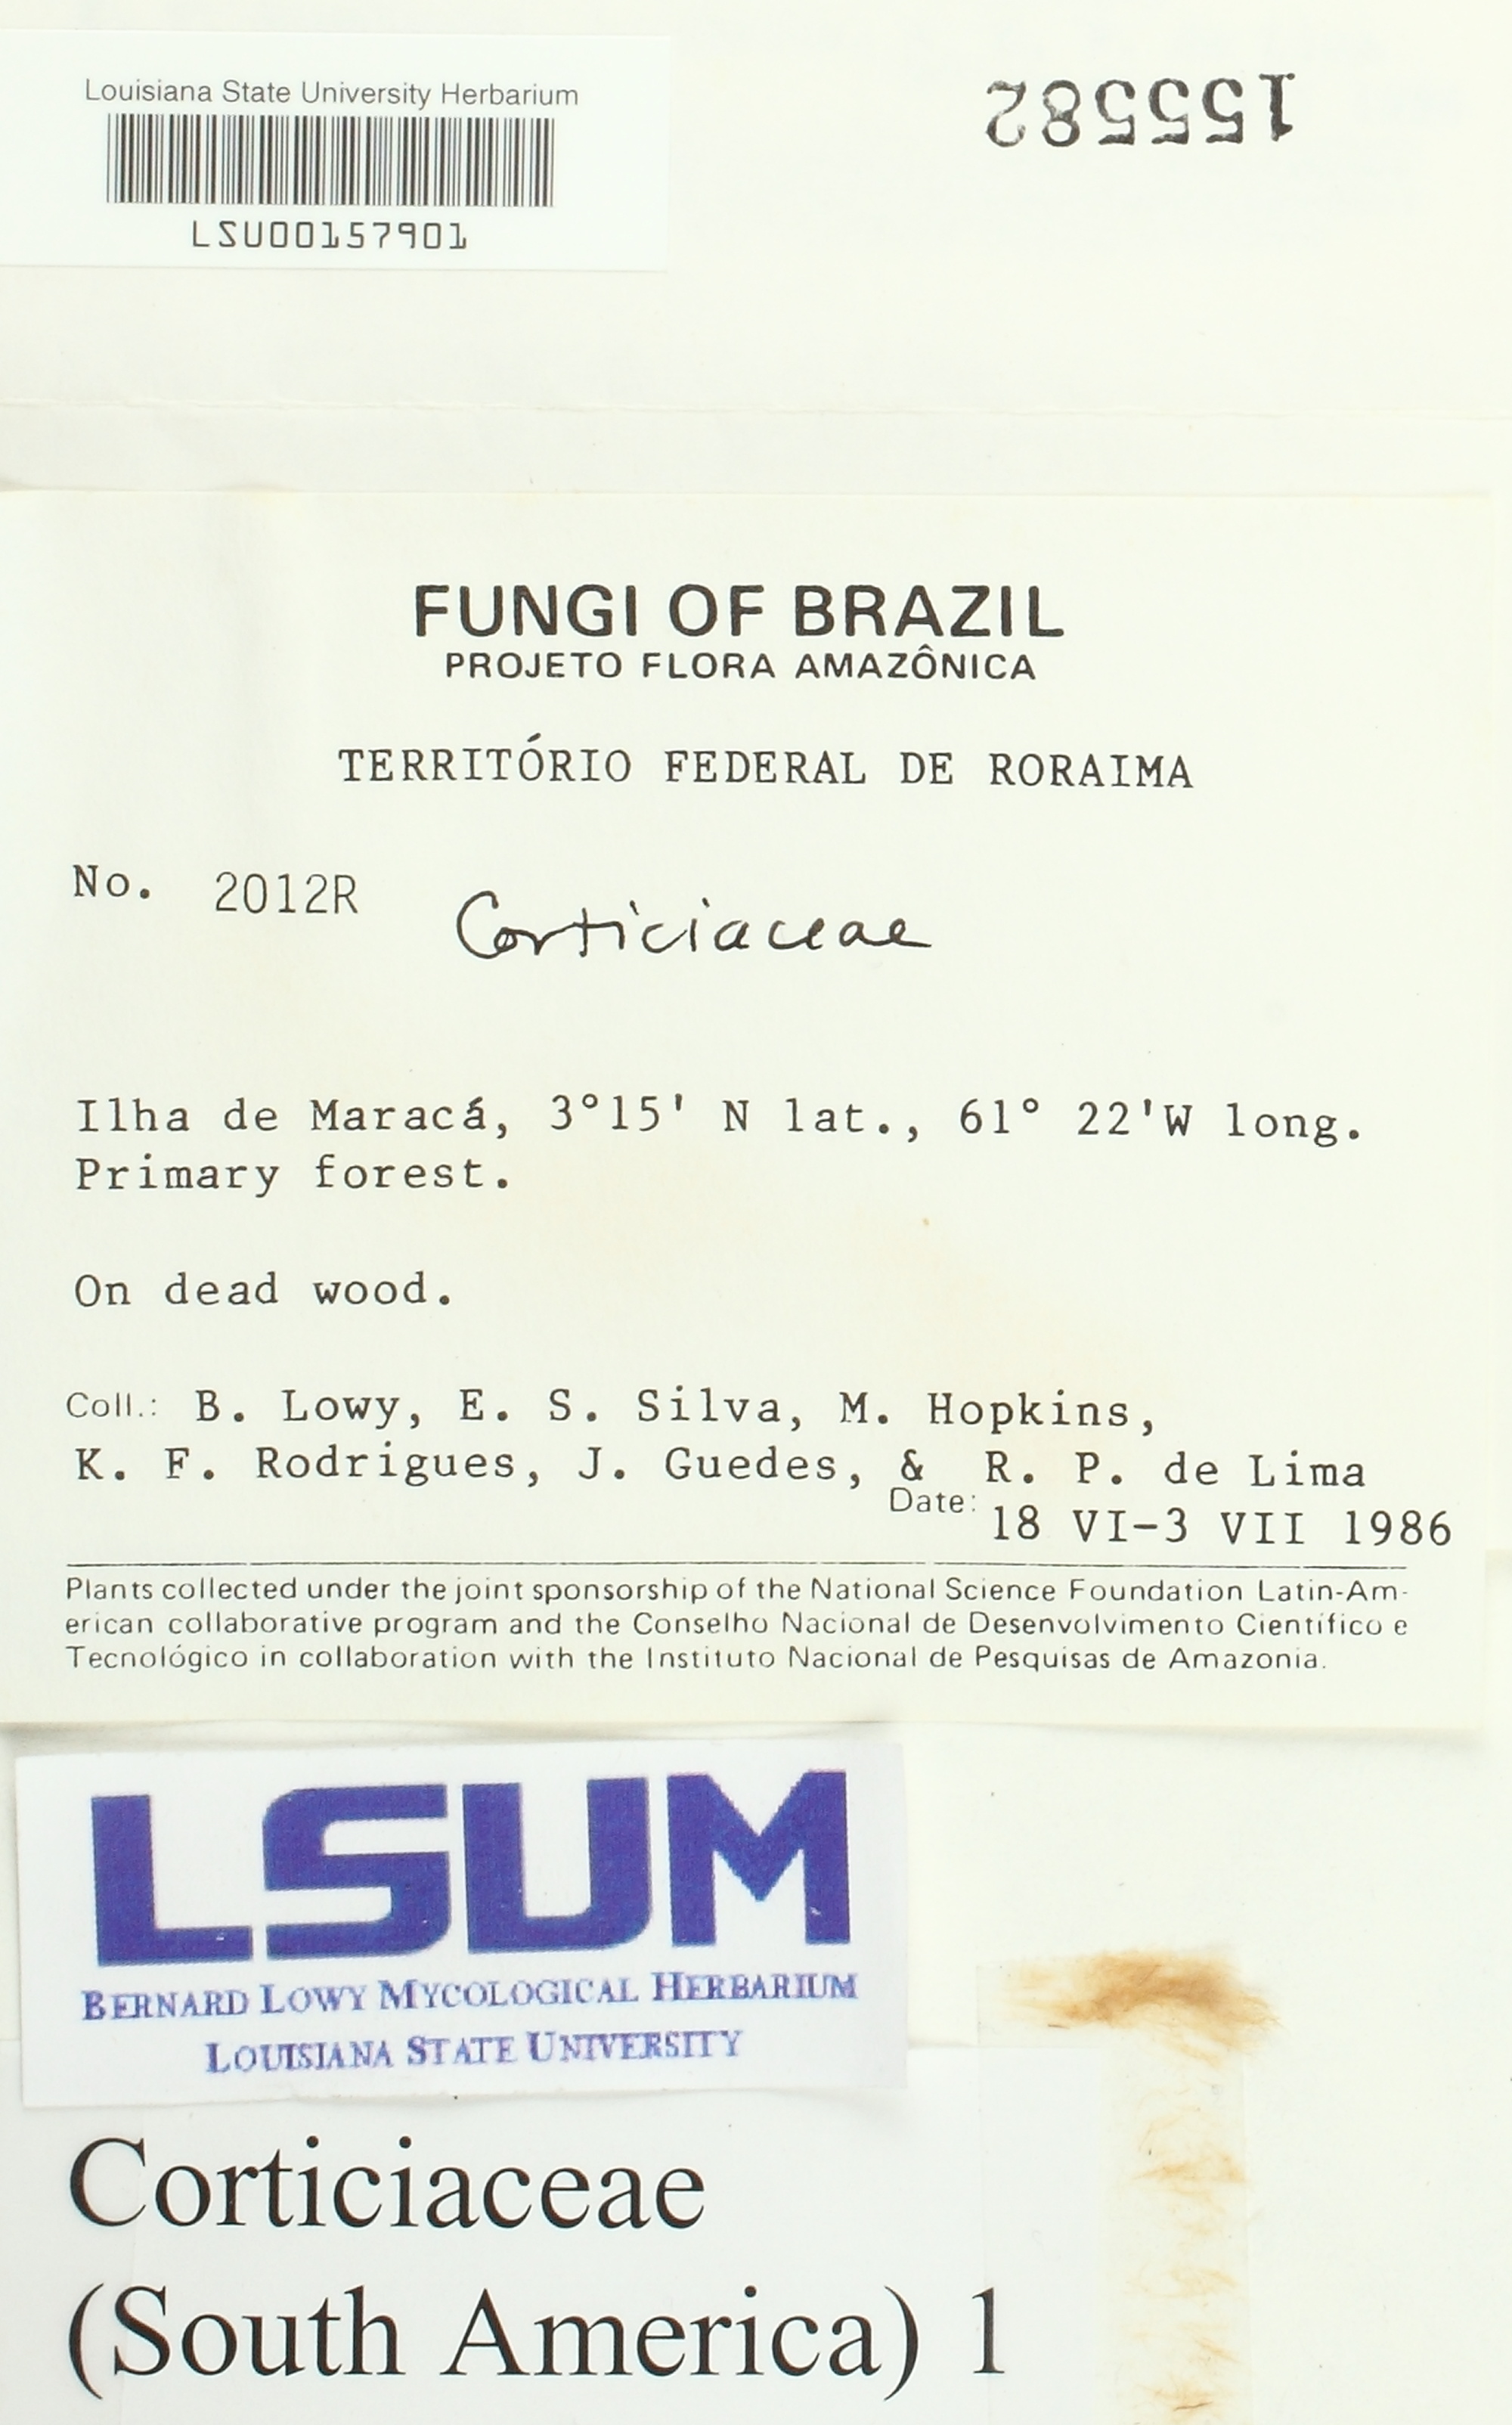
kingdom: Fungi
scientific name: Fungi
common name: Fungi
